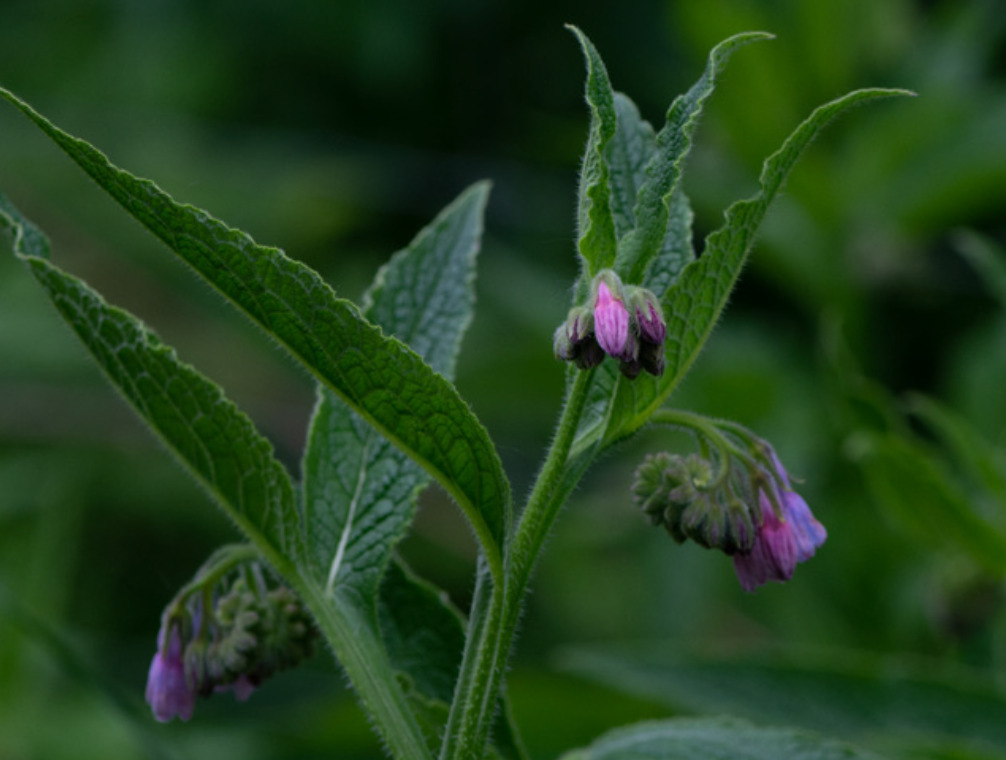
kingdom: Plantae
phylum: Tracheophyta
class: Magnoliopsida
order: Boraginales
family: Boraginaceae
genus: Symphytum
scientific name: Symphytum officinale
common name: Læge-kulsukker
